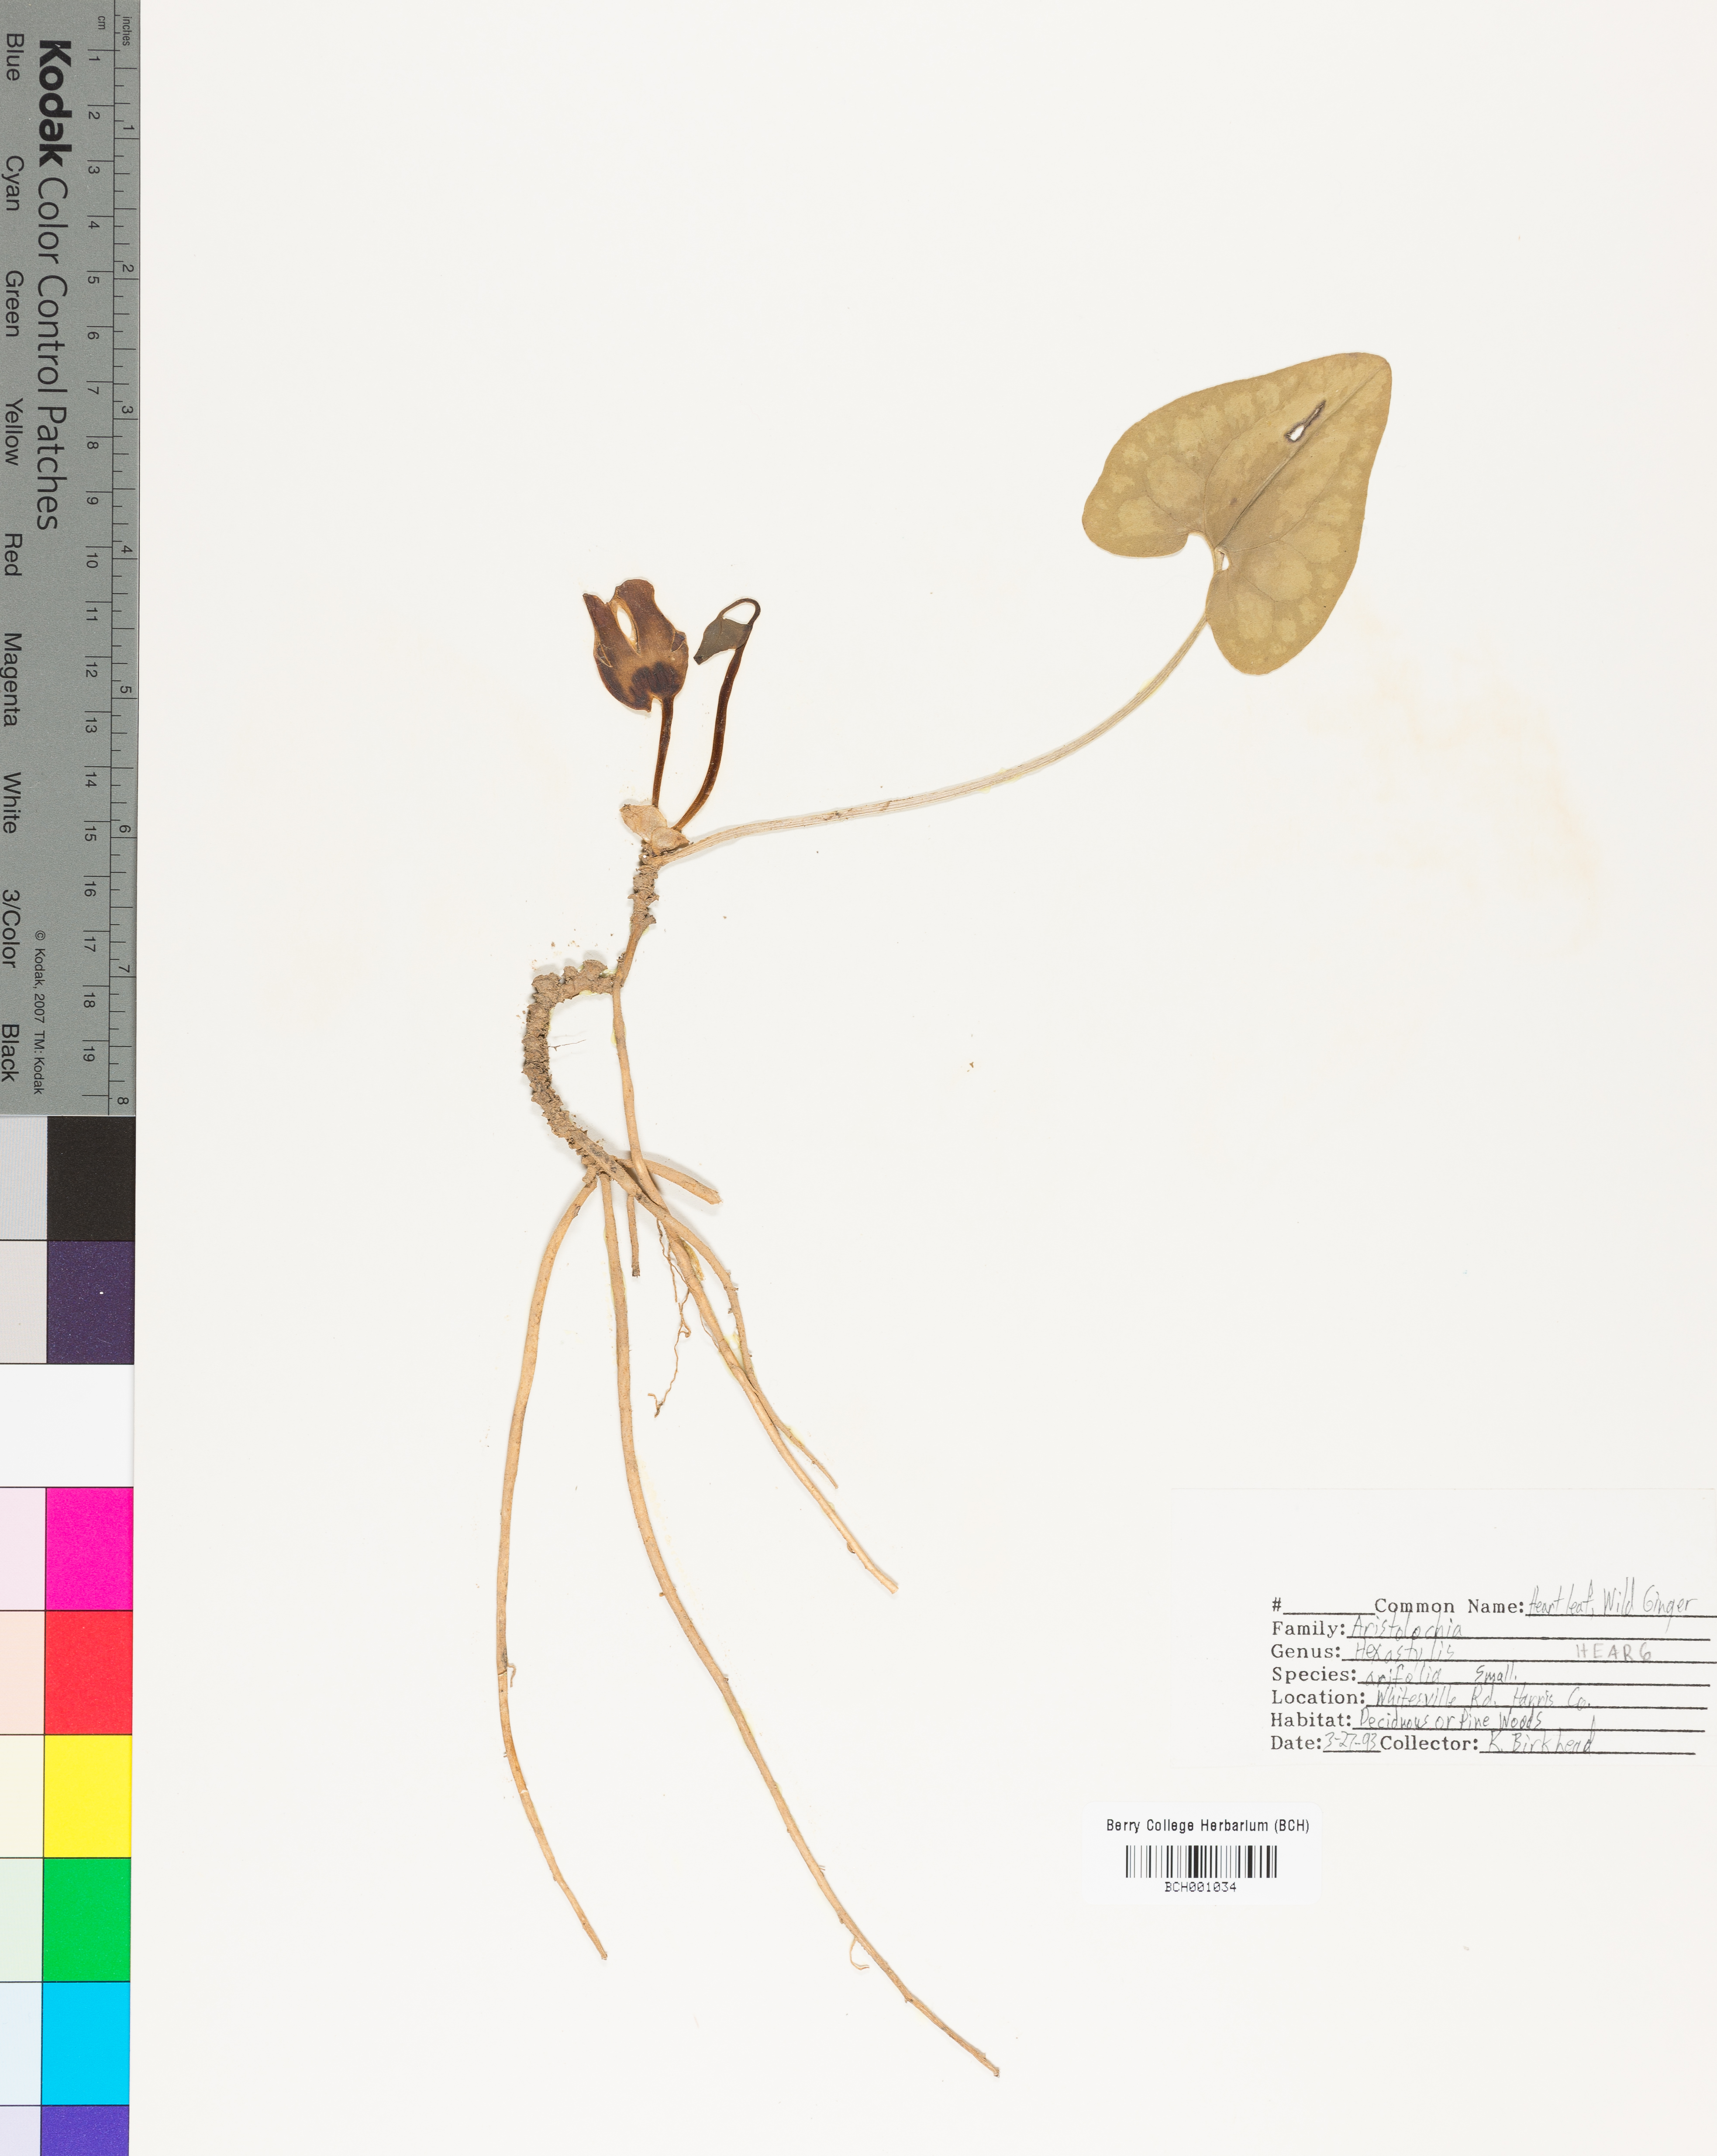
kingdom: Plantae
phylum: Tracheophyta
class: Magnoliopsida
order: Piperales
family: Aristolochiaceae
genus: Hexastylis
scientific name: Hexastylis arifolia
